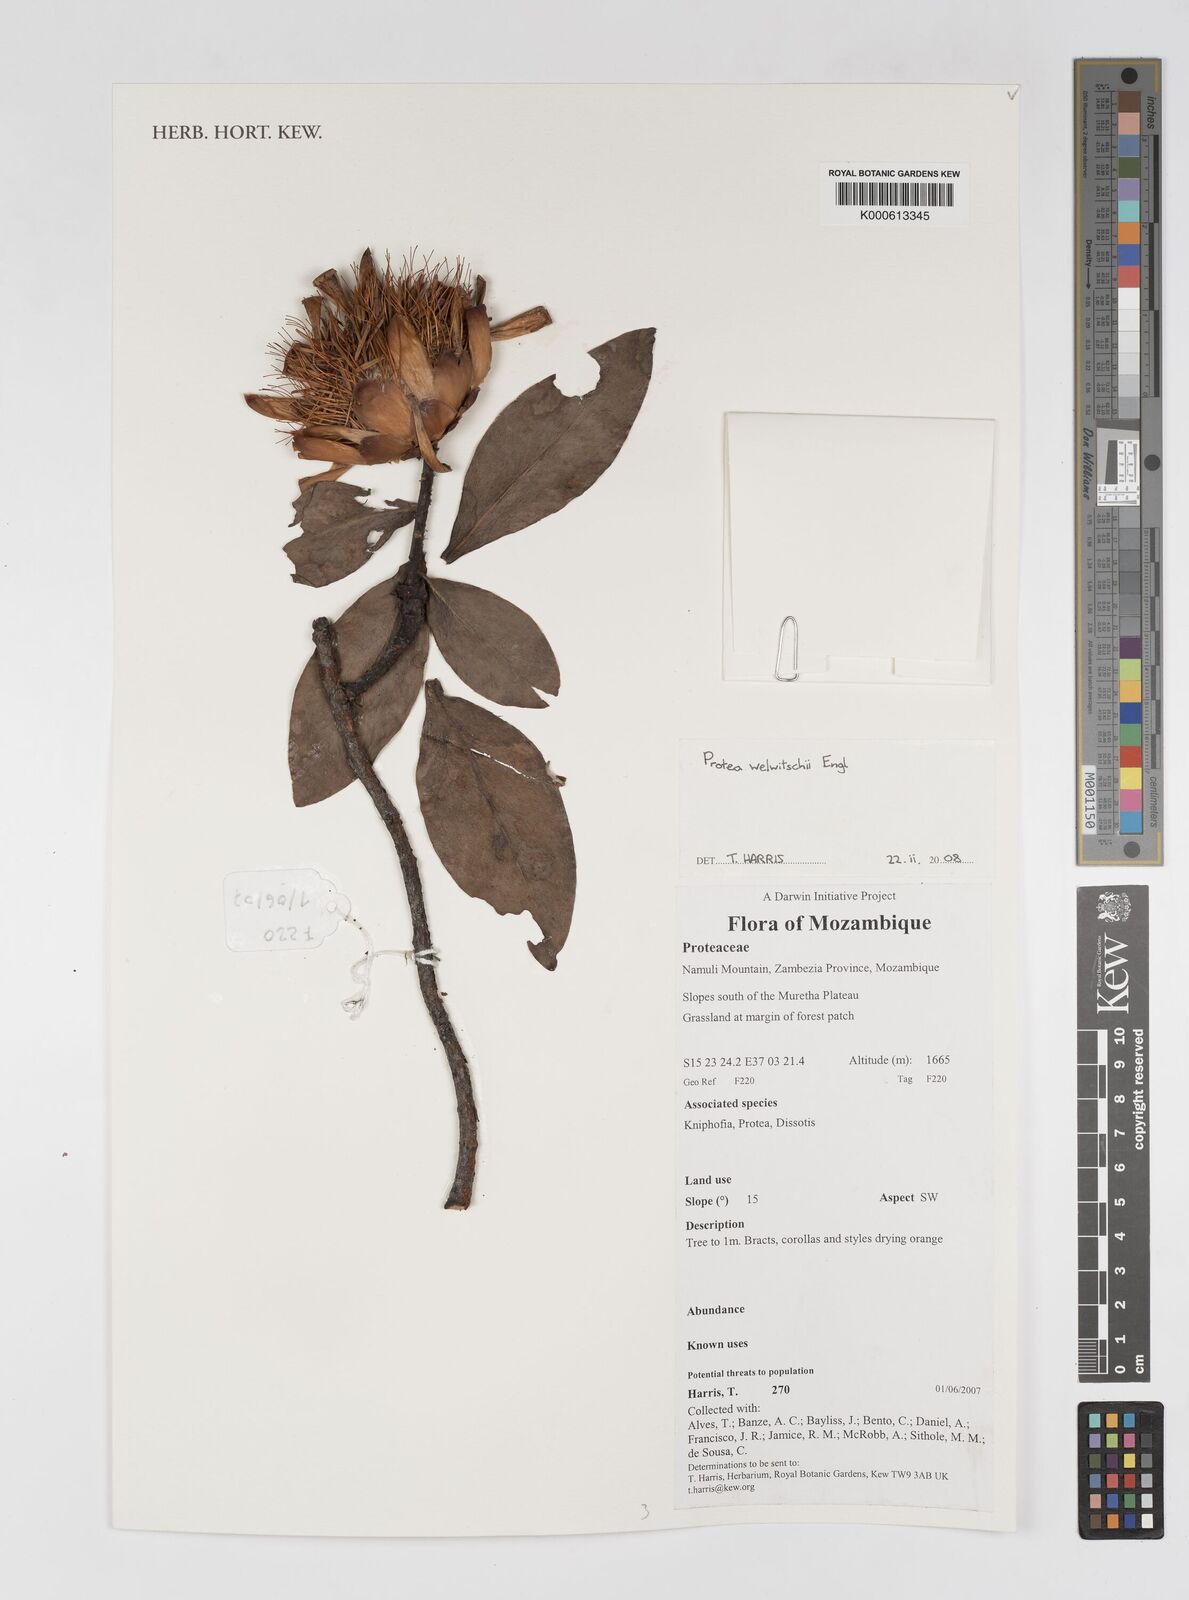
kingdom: Plantae
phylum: Tracheophyta
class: Magnoliopsida
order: Proteales
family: Proteaceae
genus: Protea
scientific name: Protea welwitschii
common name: Cluster-head protea
